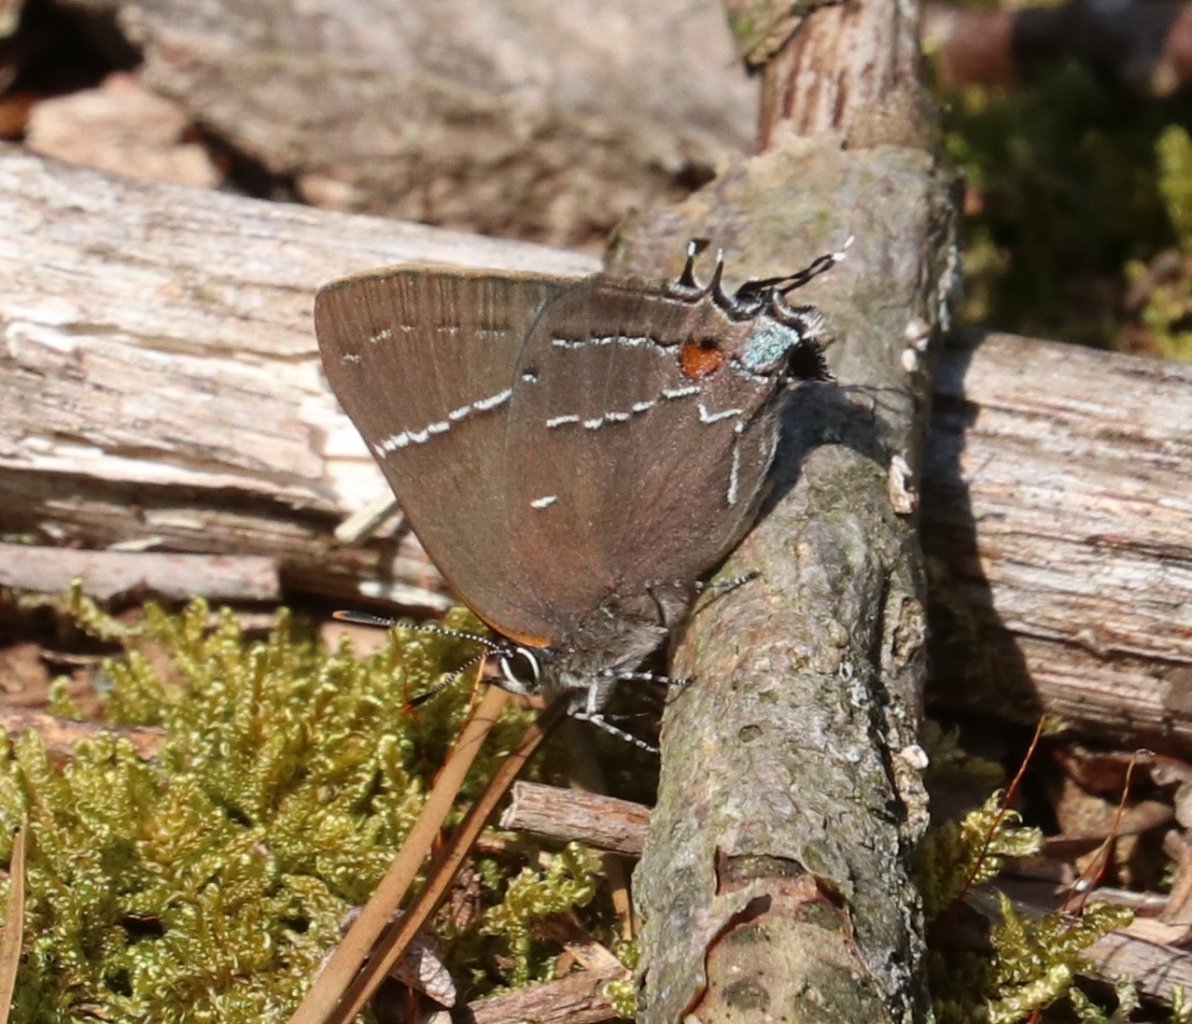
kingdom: Animalia
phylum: Arthropoda
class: Insecta
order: Lepidoptera
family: Lycaenidae
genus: Parrhasius
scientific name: Parrhasius m-album
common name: White-m Hairstreak
